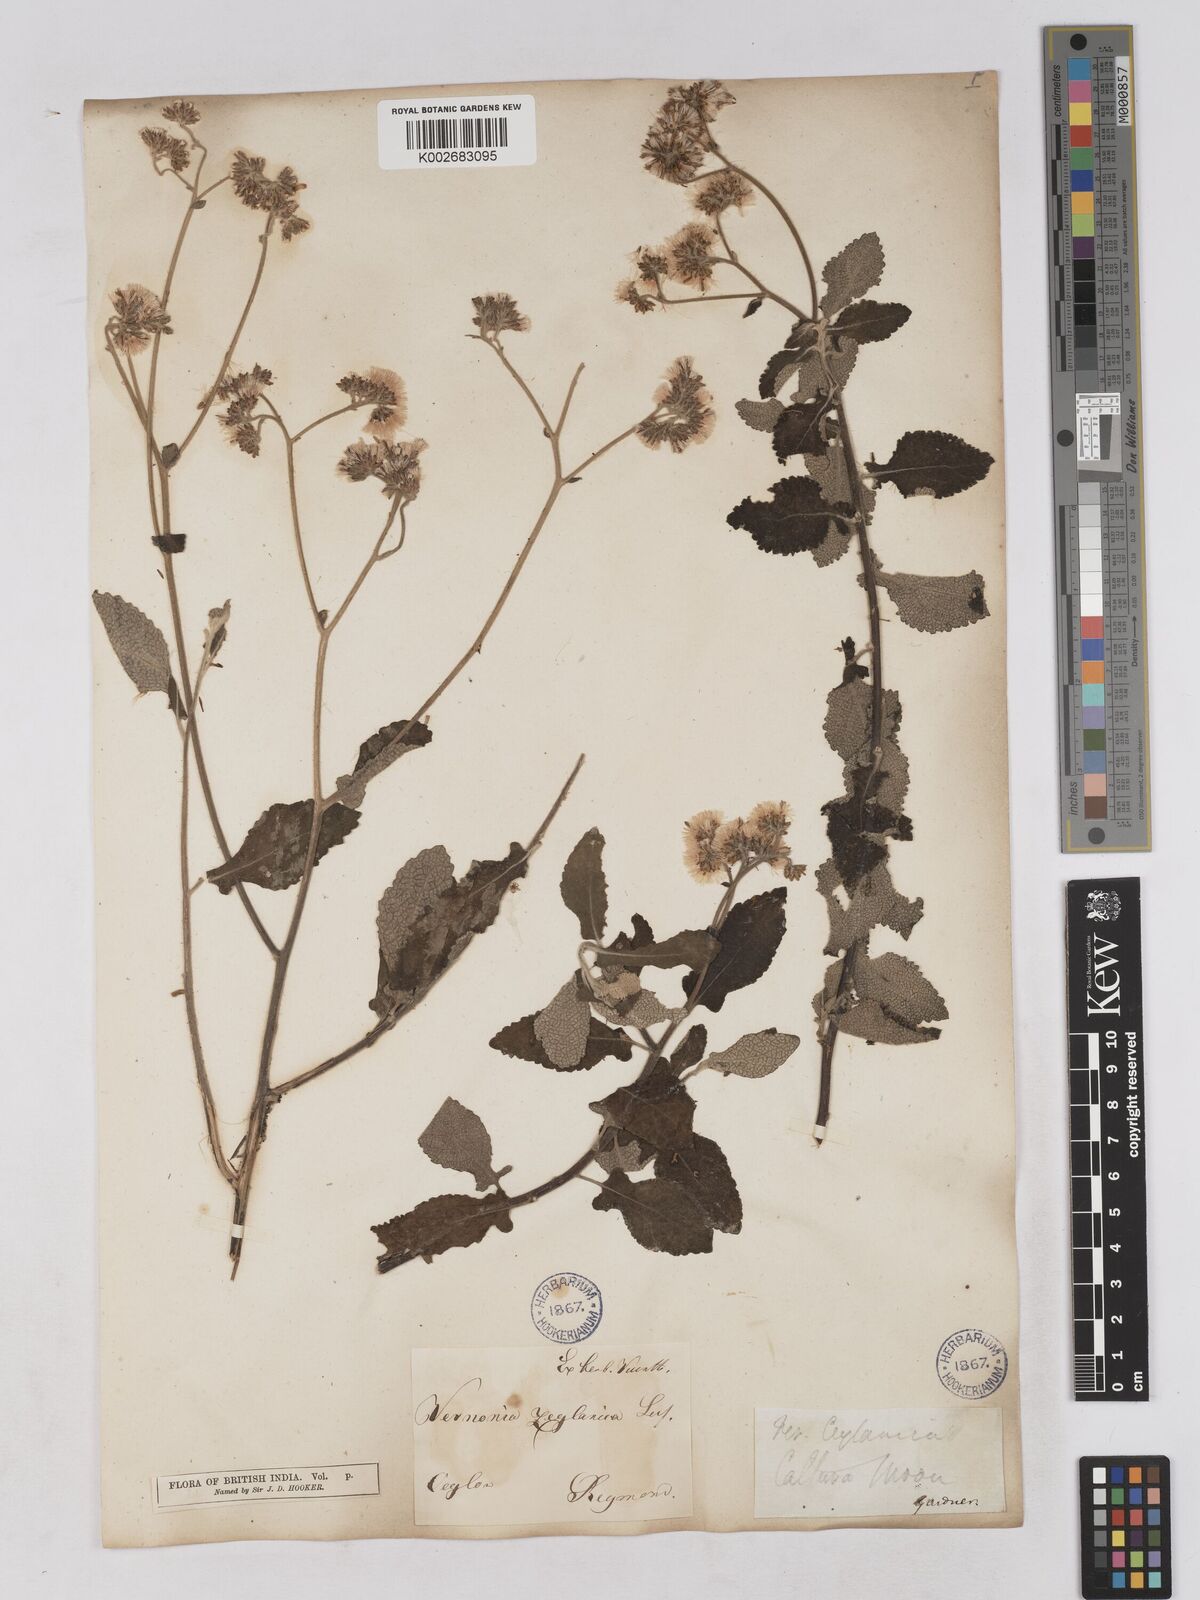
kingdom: Plantae
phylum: Tracheophyta
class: Magnoliopsida
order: Asterales
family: Asteraceae
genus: Jeffreycia
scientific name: Jeffreycia zeylanica
